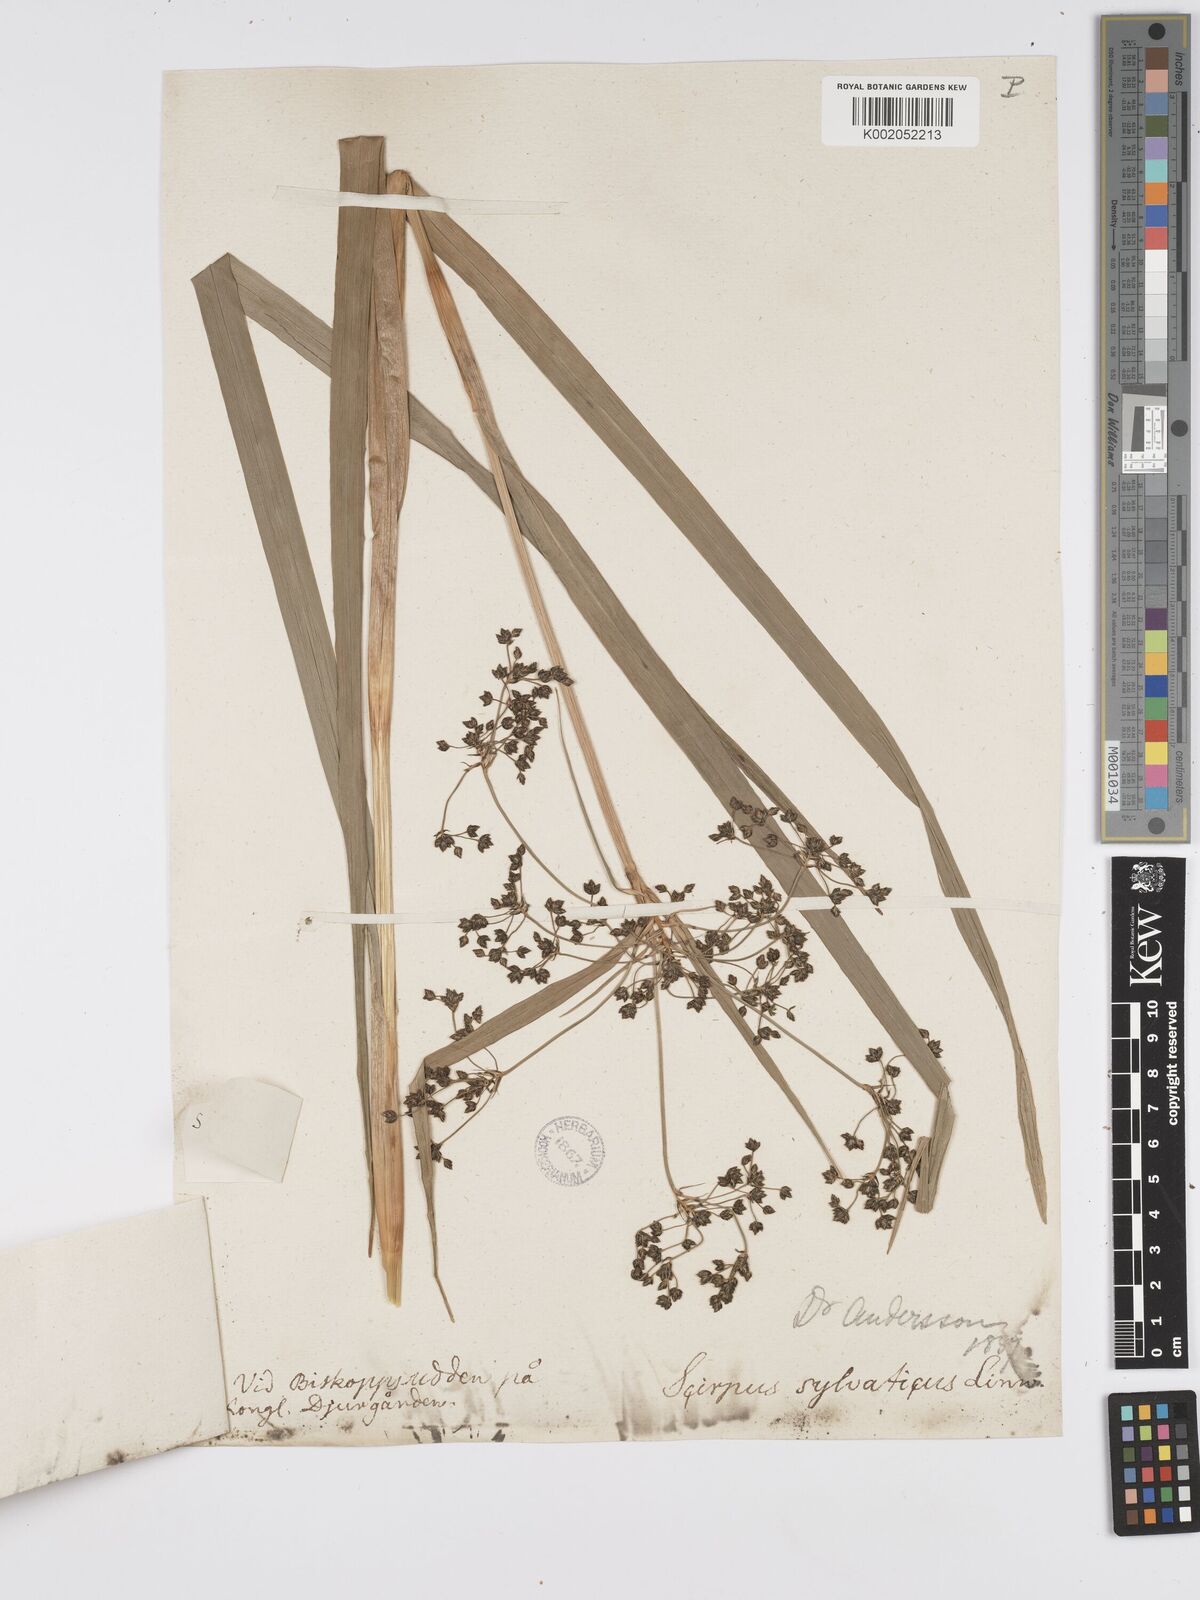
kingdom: Plantae
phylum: Tracheophyta
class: Liliopsida
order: Poales
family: Cyperaceae
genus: Scirpus
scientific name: Scirpus sylvaticus
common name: Wood club-rush
